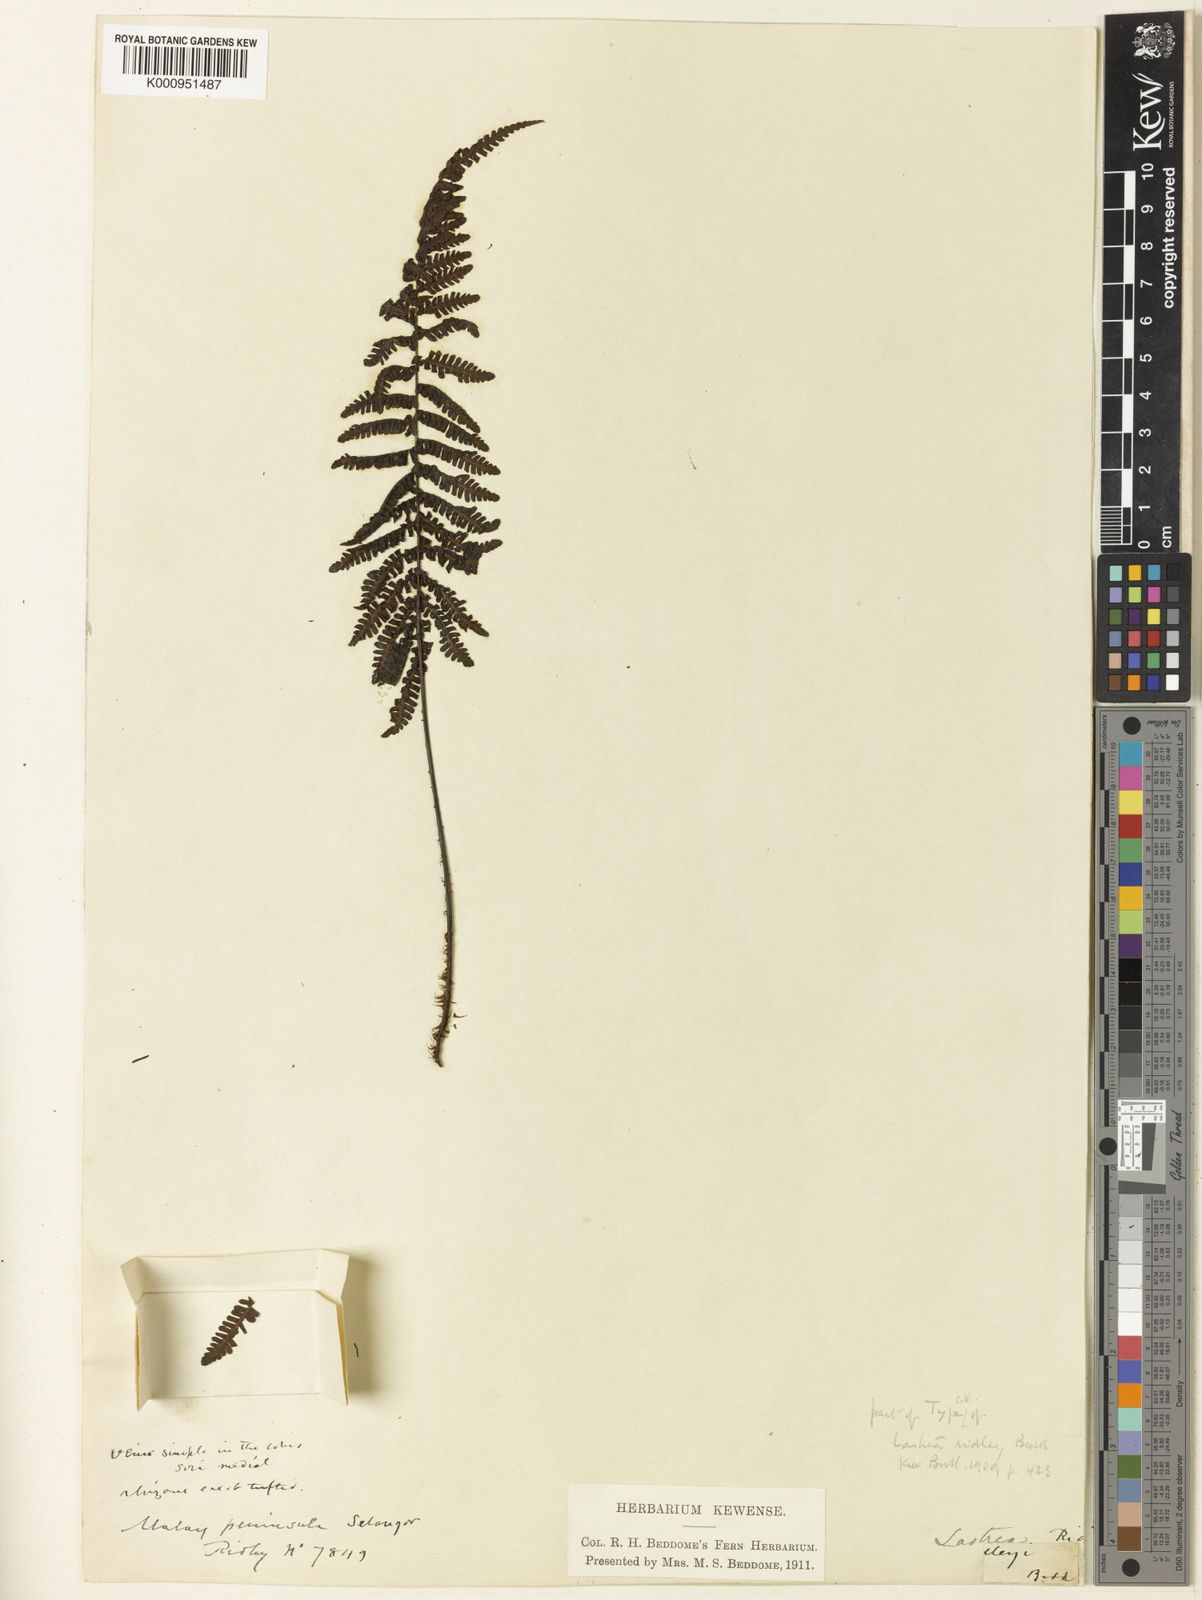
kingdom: Plantae
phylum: Tracheophyta
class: Polypodiopsida
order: Polypodiales
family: Thelypteridaceae
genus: Coryphopteris
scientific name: Coryphopteris gymnopoda
